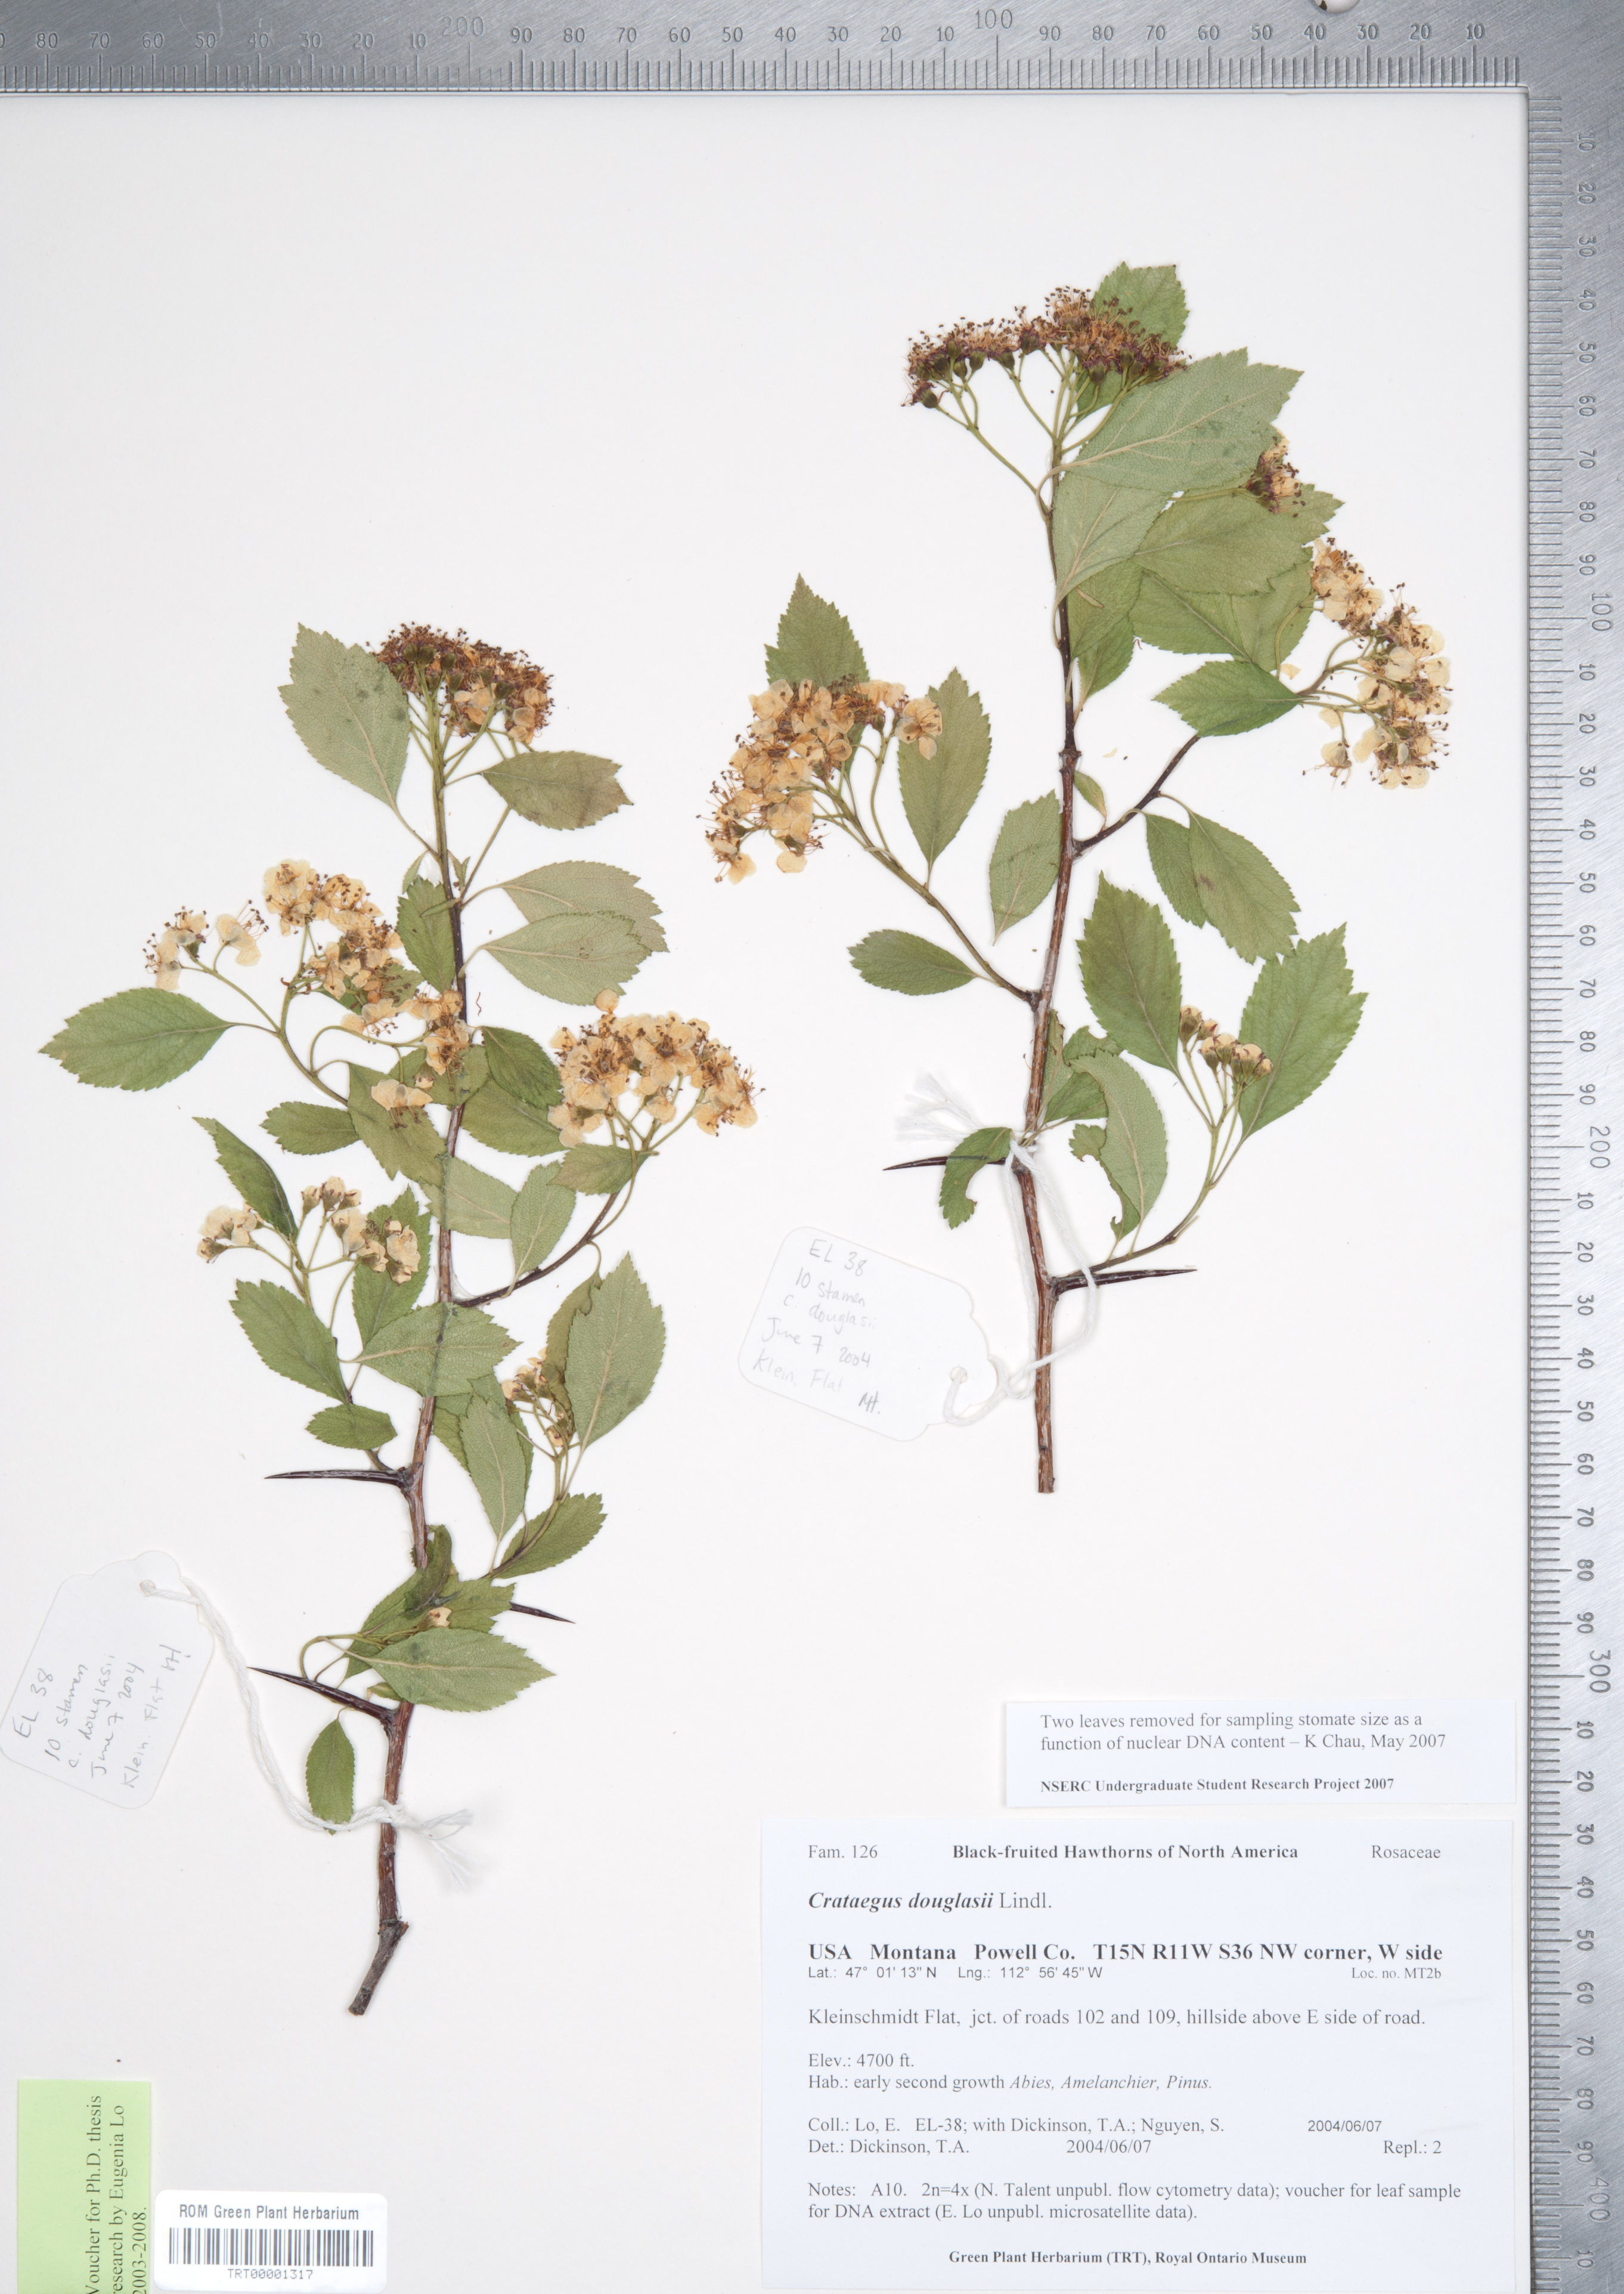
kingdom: Plantae
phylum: Tracheophyta
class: Magnoliopsida
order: Rosales
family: Rosaceae
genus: Crataegus
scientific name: Crataegus douglasii
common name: Black hawthorn
